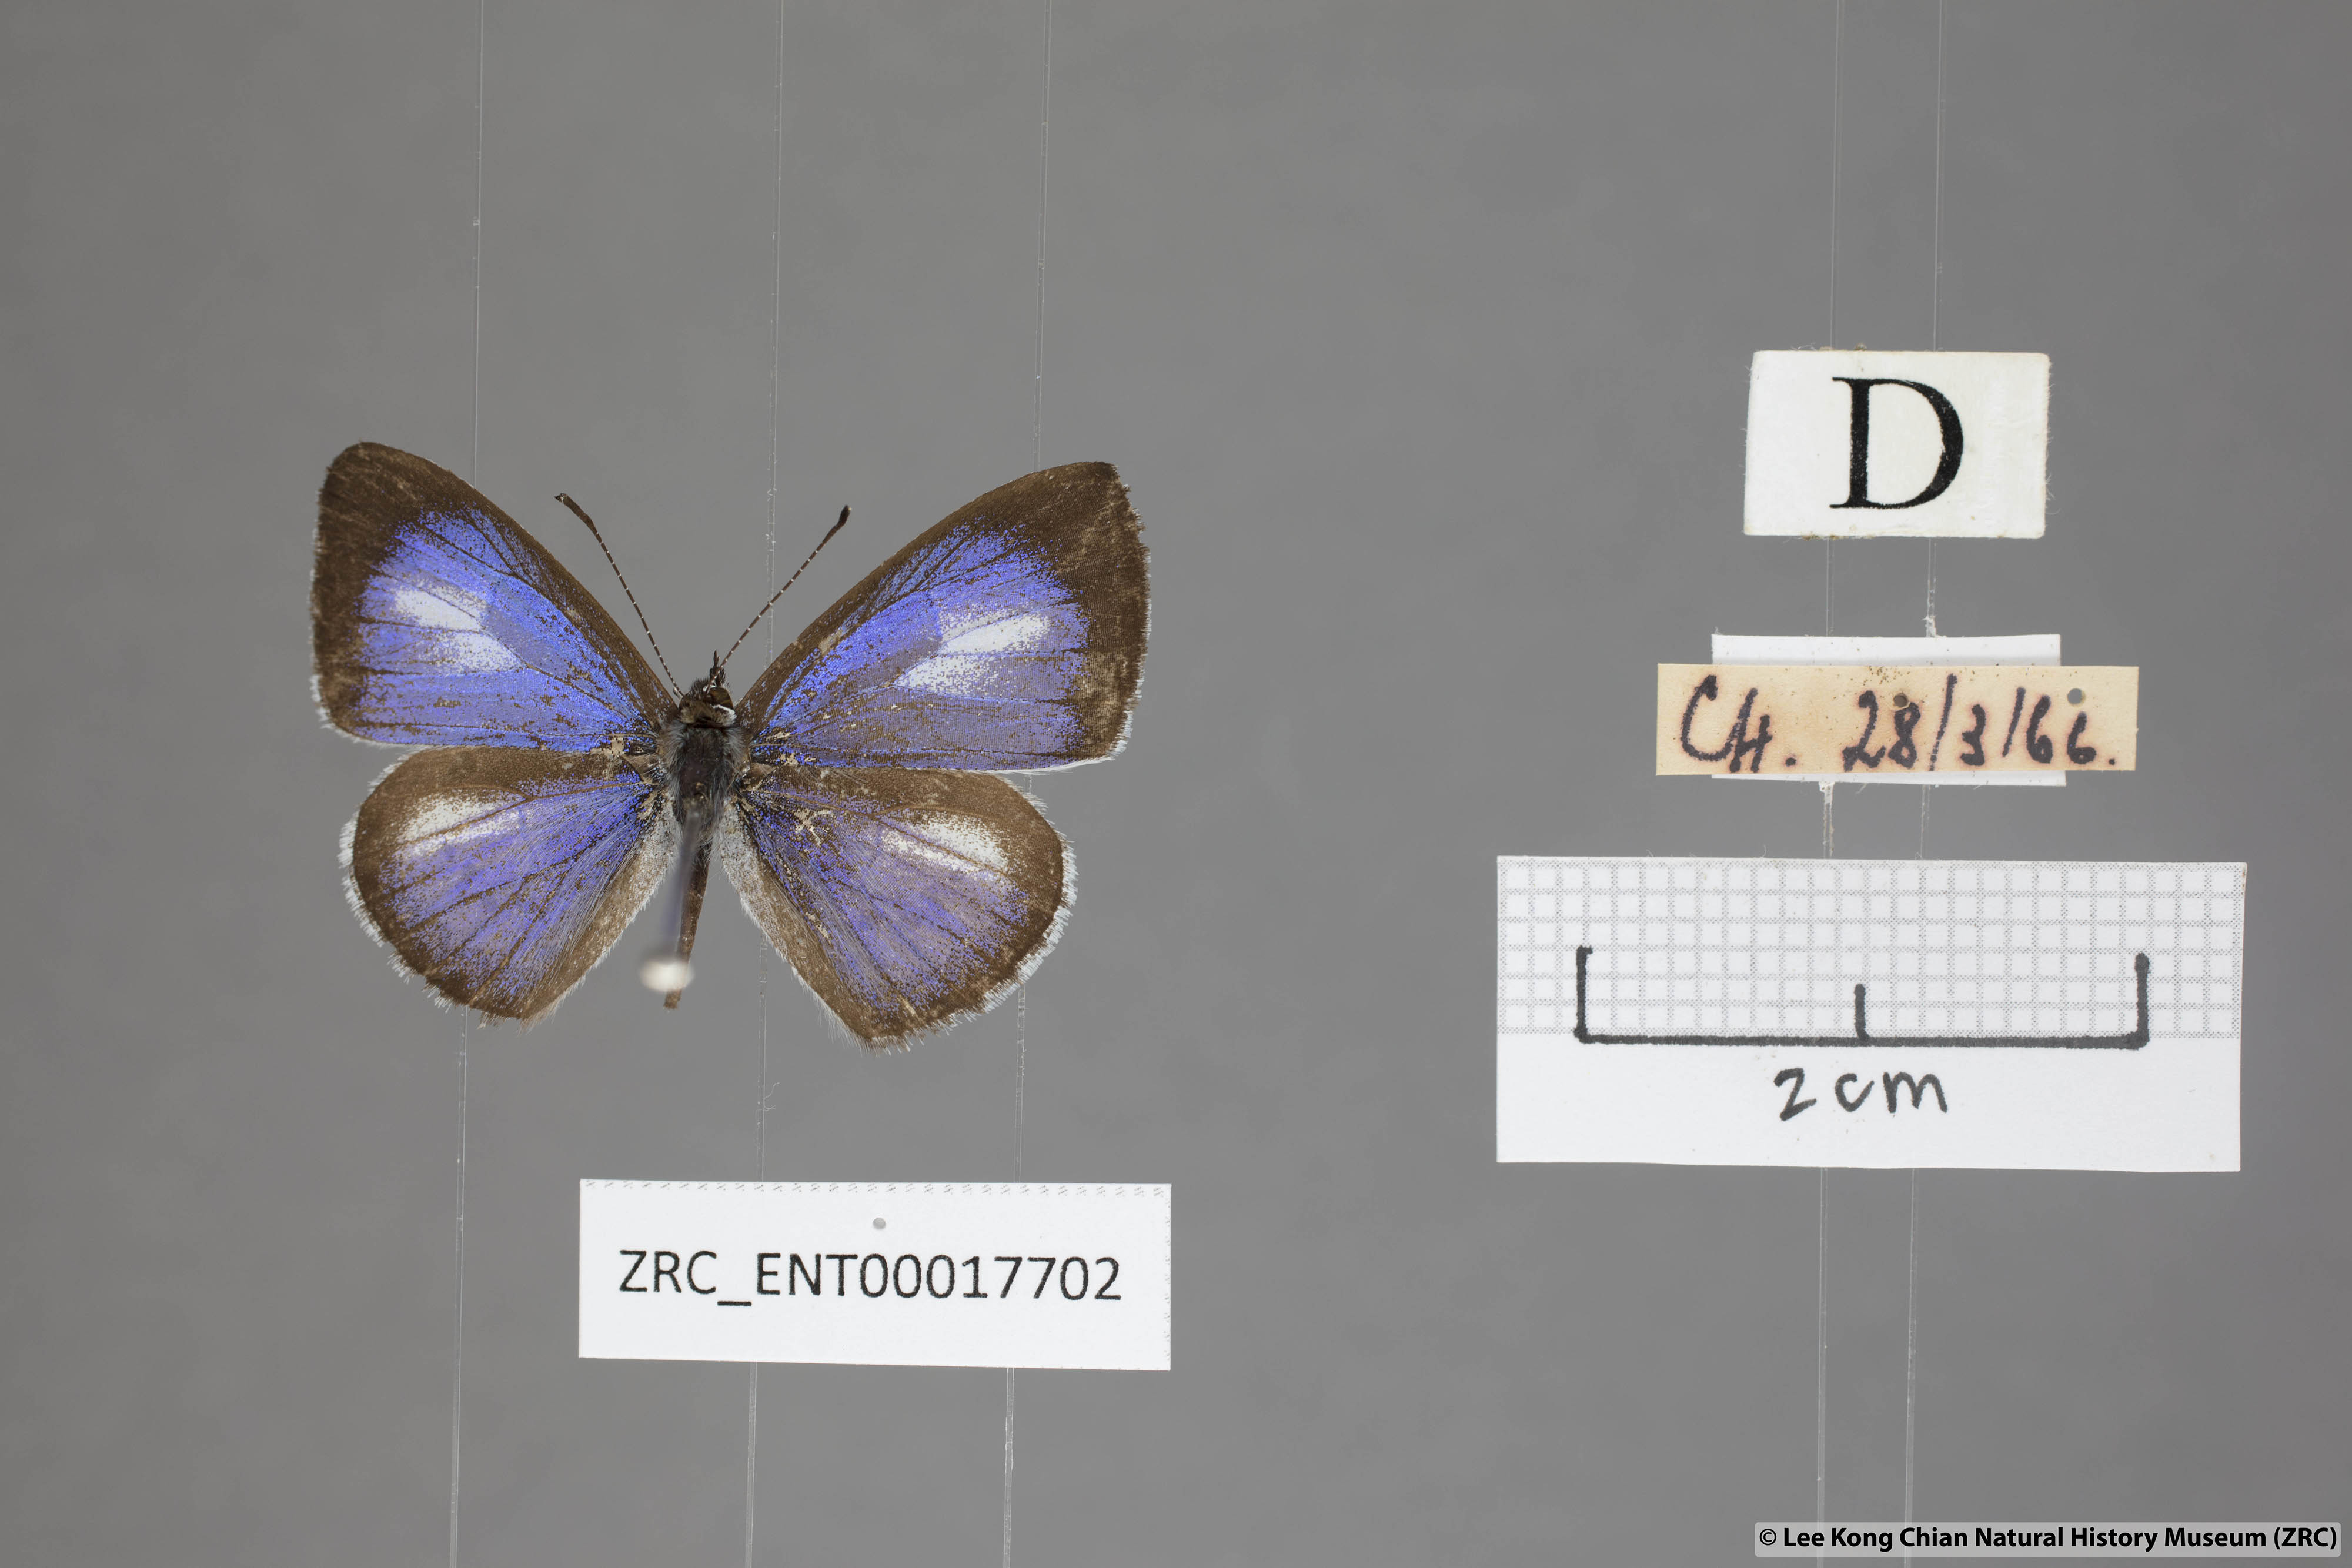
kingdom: Animalia
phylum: Arthropoda
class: Insecta
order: Lepidoptera
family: Lycaenidae
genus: Lycaenopsis
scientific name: Lycaenopsis marginata
